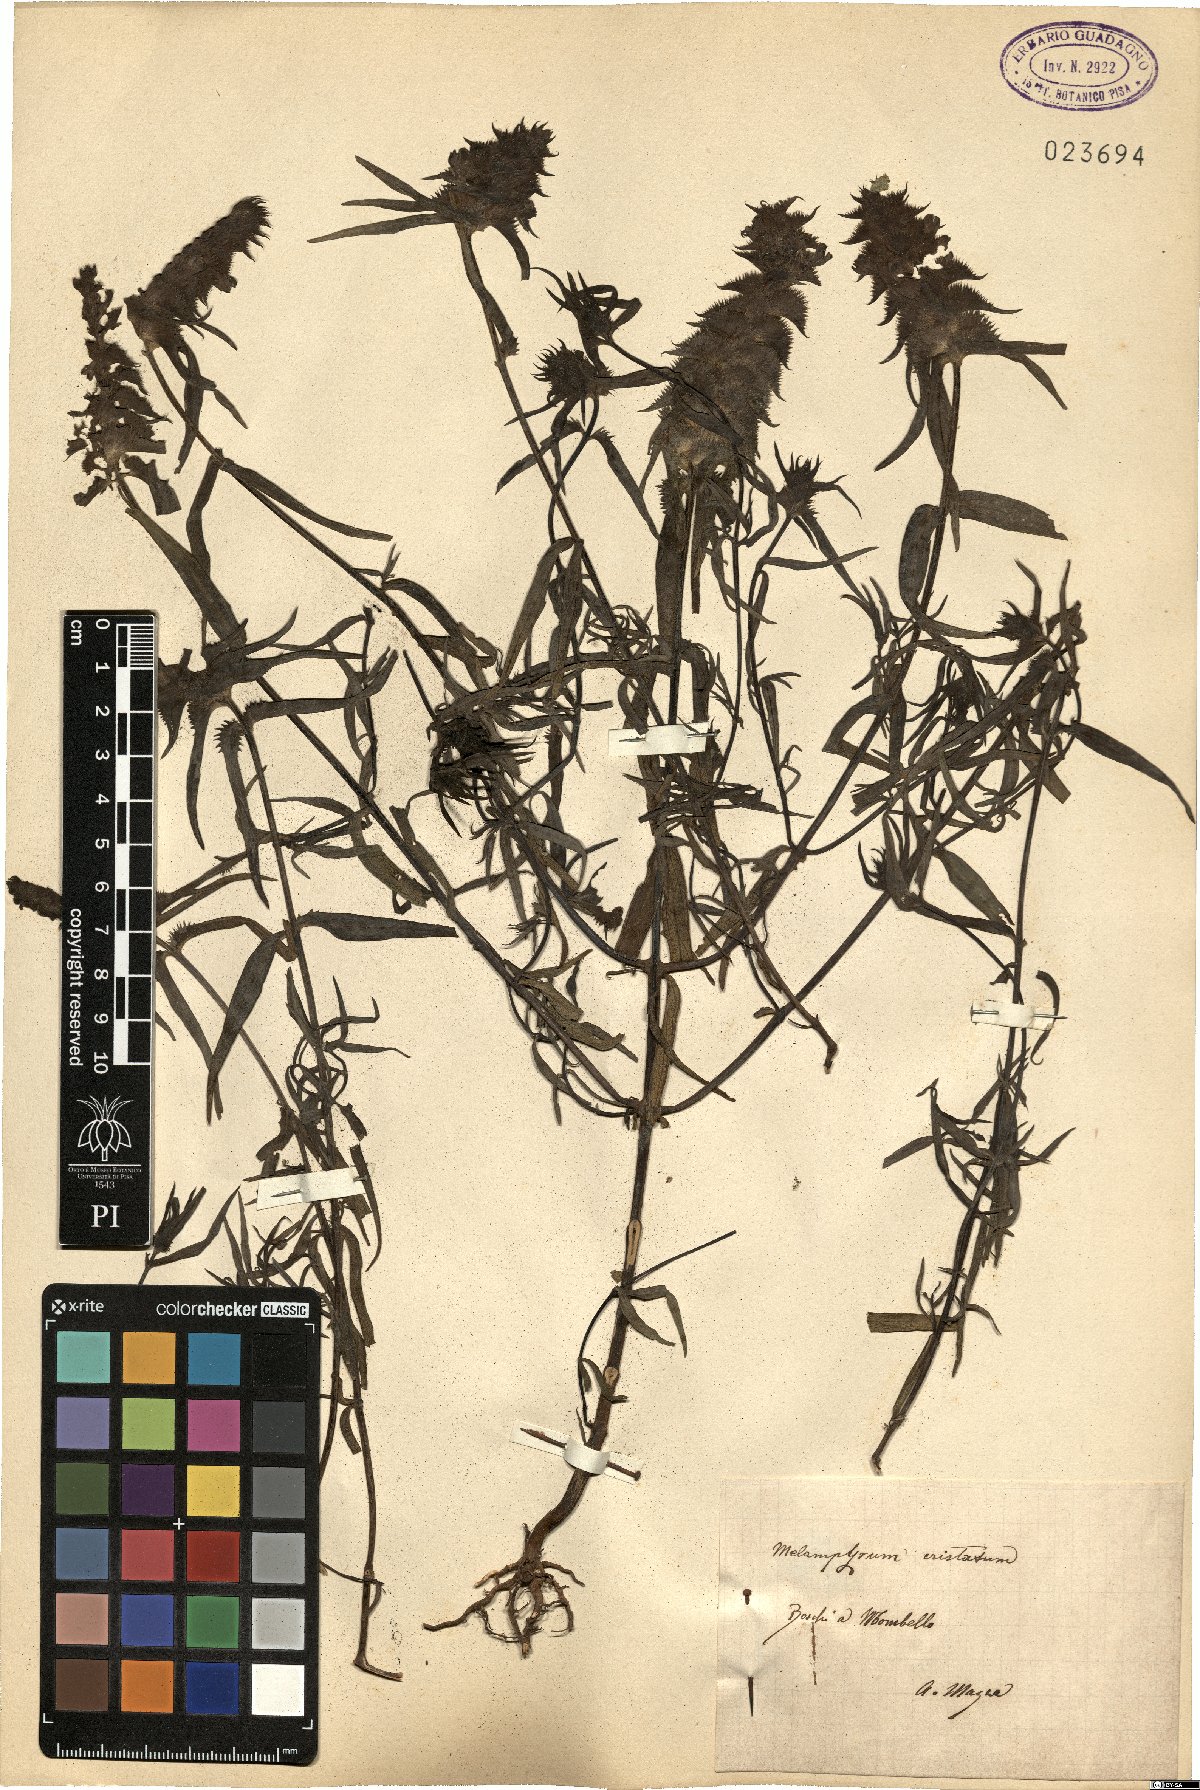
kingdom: Plantae
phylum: Tracheophyta
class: Magnoliopsida
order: Lamiales
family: Orobanchaceae
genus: Melampyrum
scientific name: Melampyrum cristatum
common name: Crested cow-wheat
